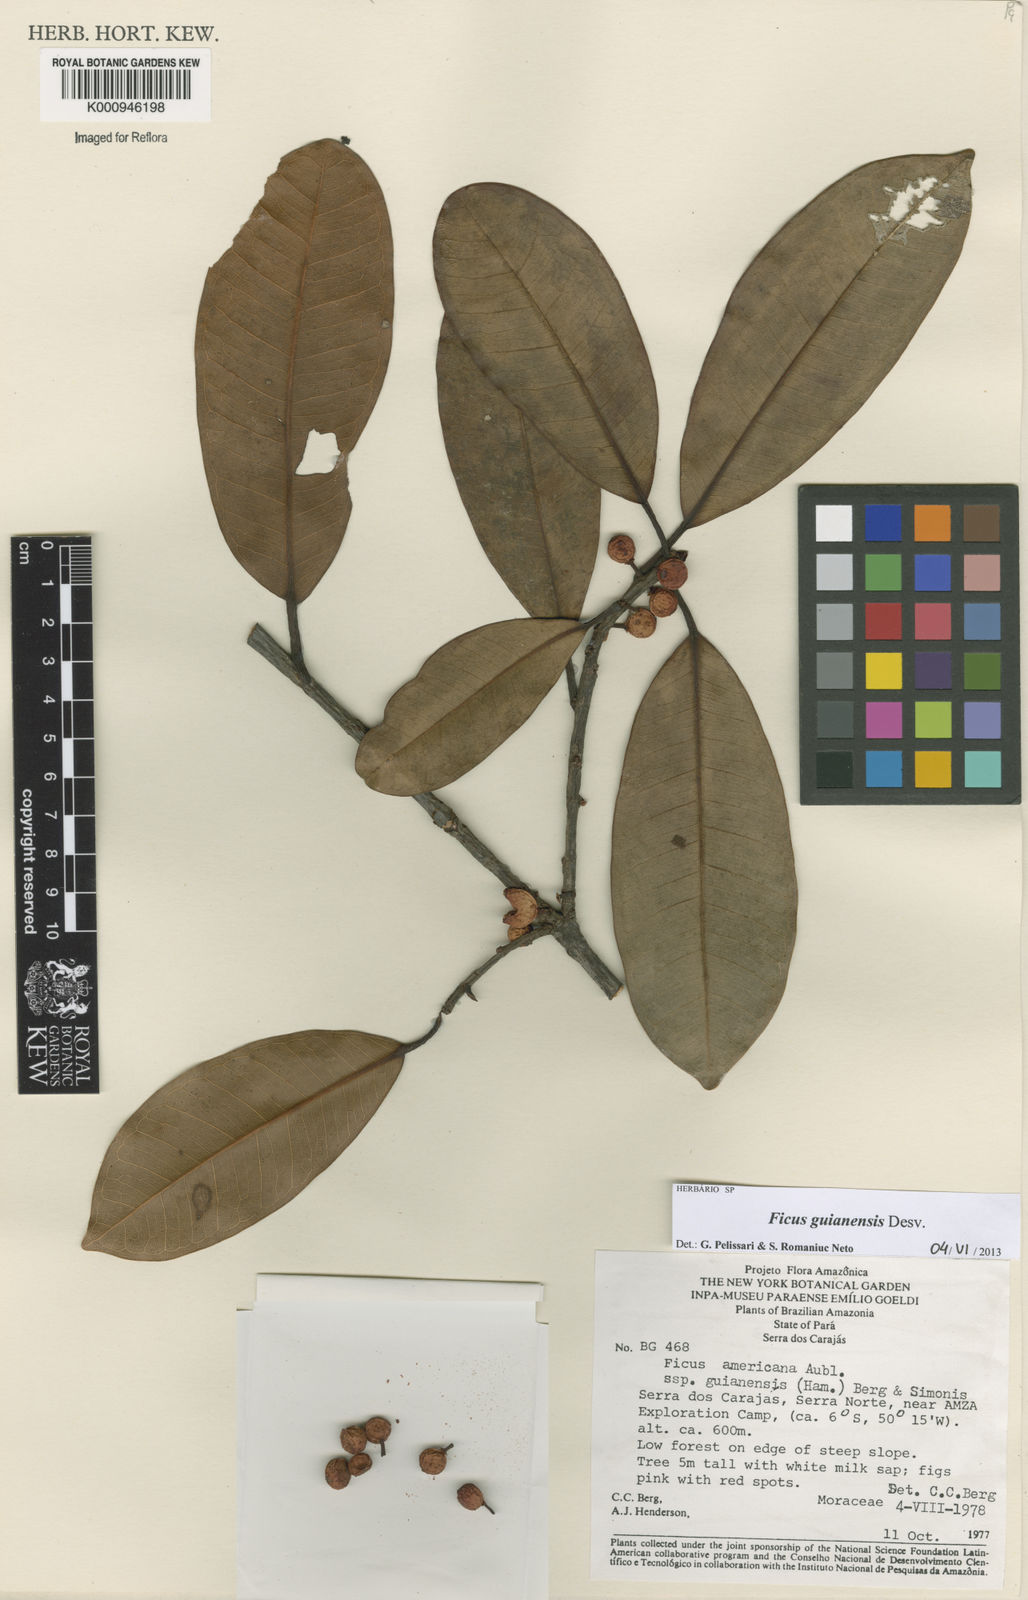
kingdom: Plantae
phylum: Tracheophyta
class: Magnoliopsida
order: Rosales
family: Moraceae
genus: Ficus
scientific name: Ficus americana
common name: Jamaican cherry fig
